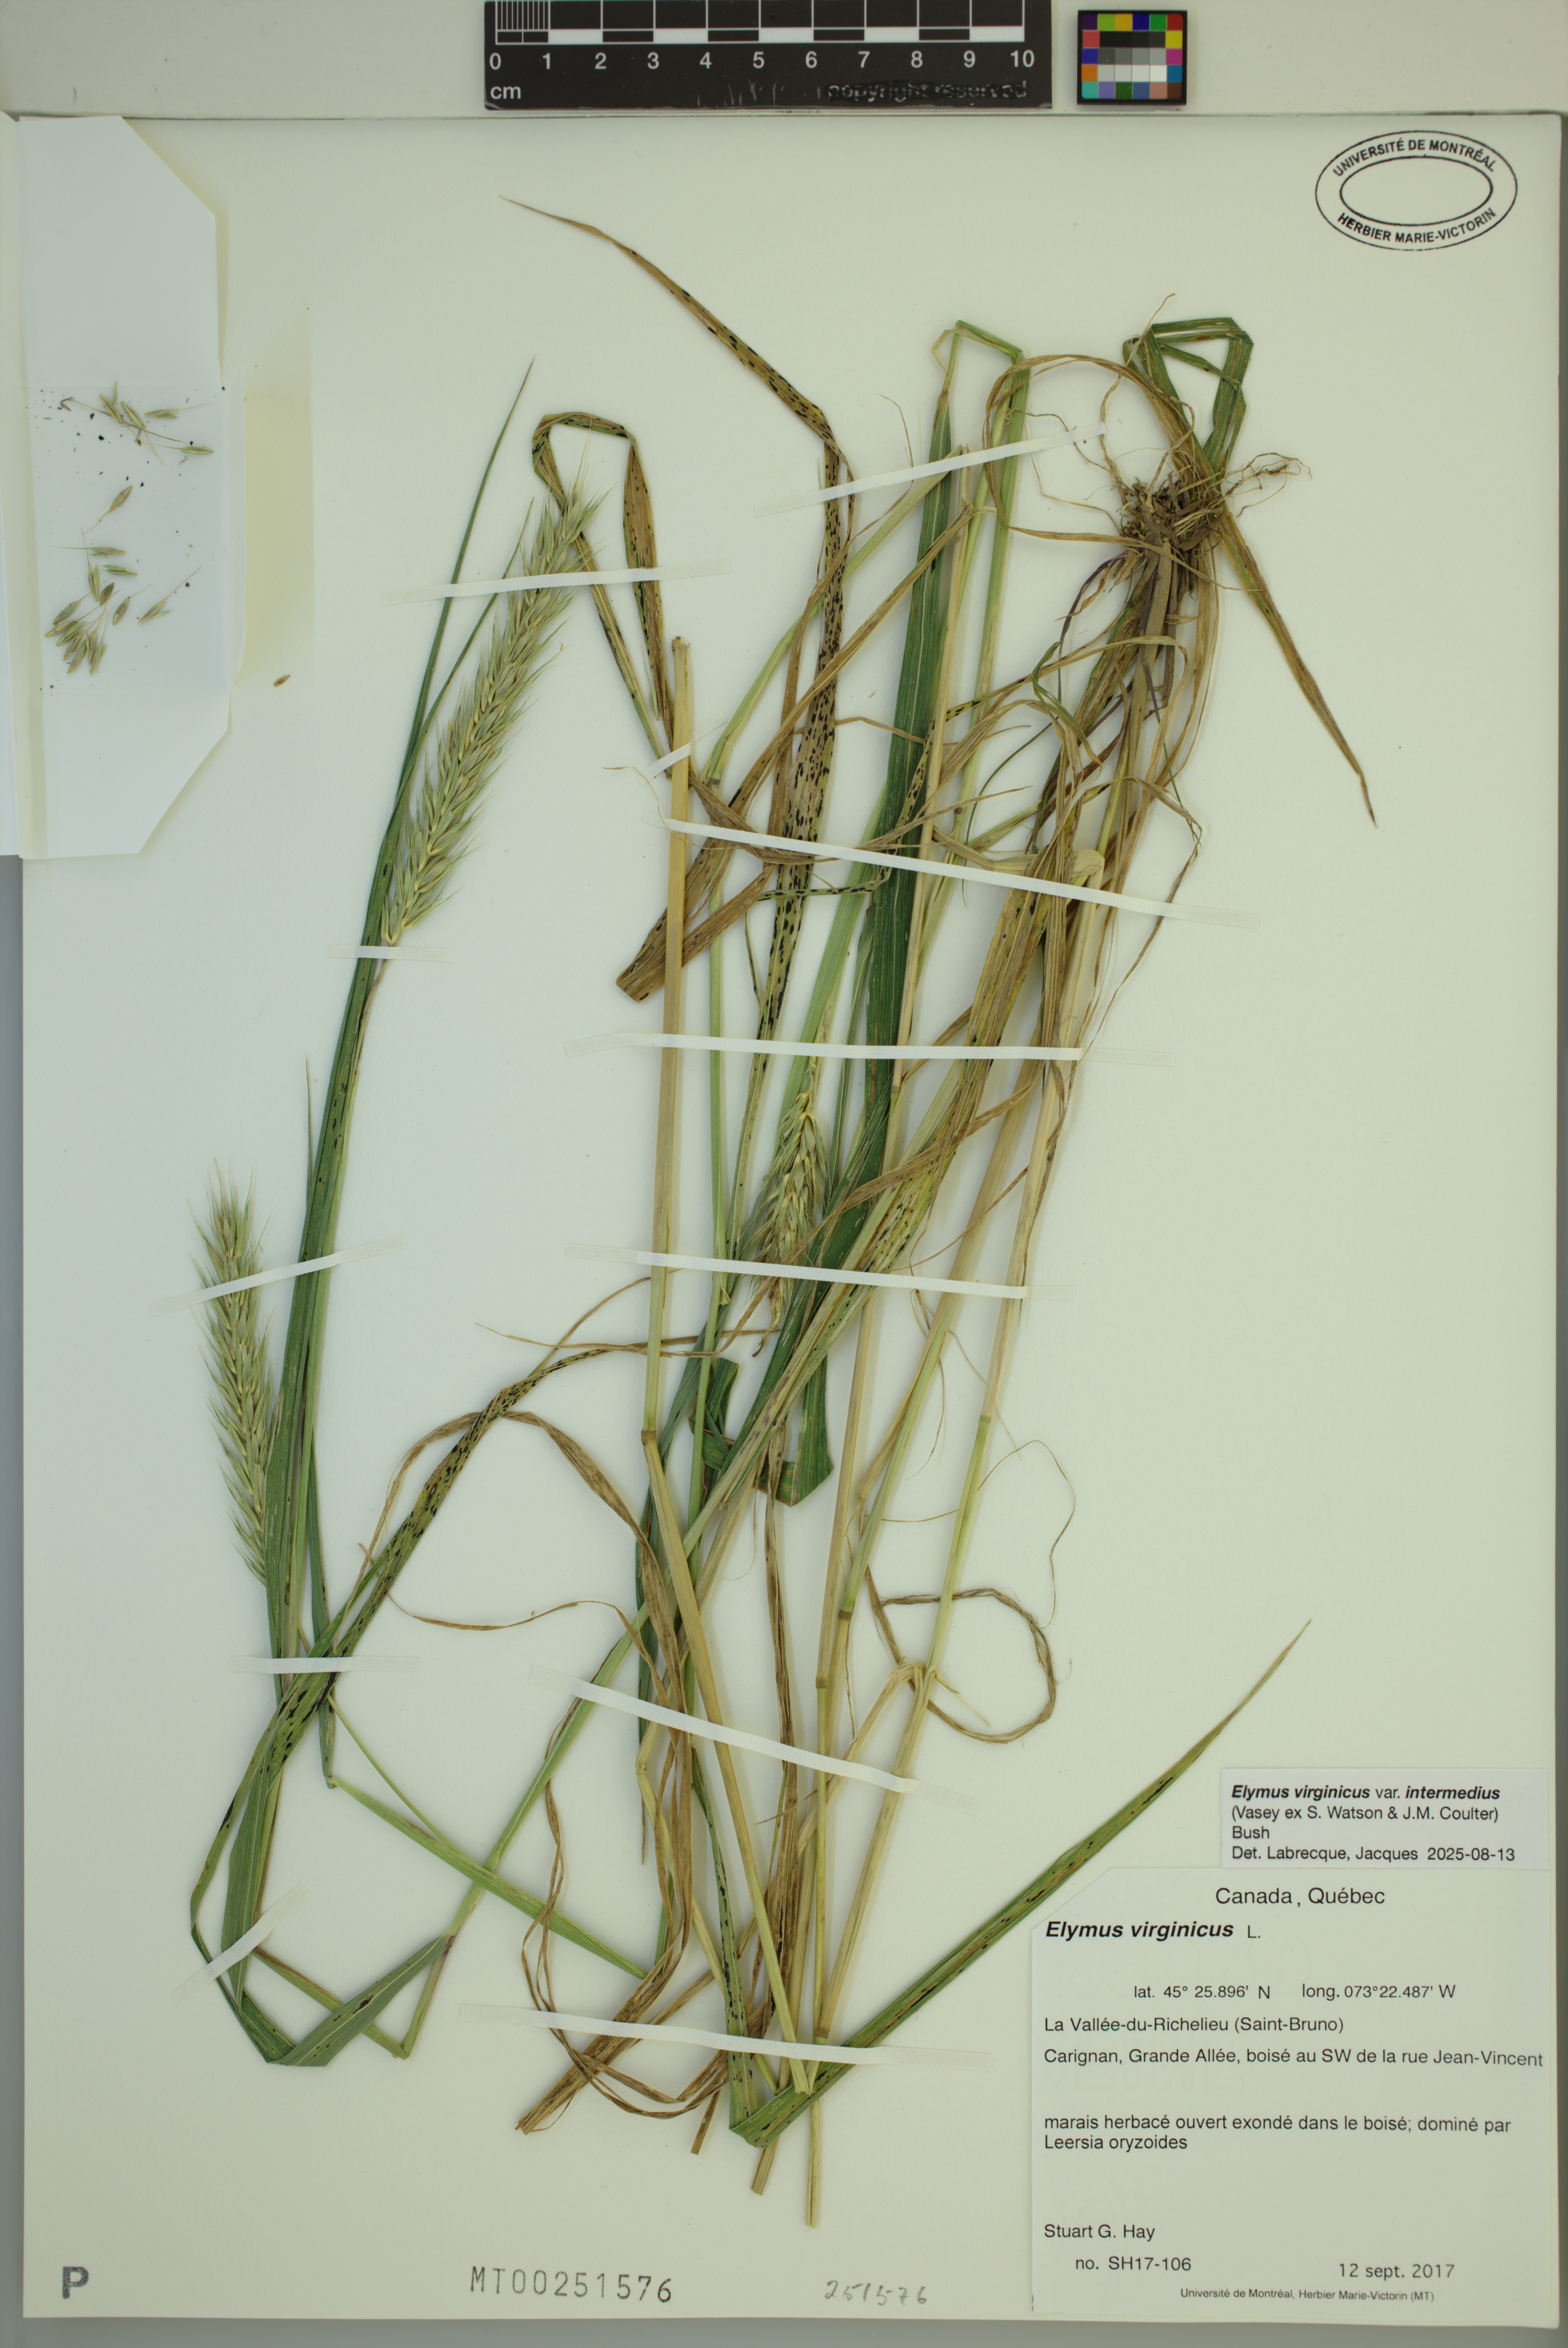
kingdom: Plantae
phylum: Tracheophyta
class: Liliopsida
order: Poales
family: Poaceae
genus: Elymus
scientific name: Elymus virginicus
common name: Common eastern wildrye
